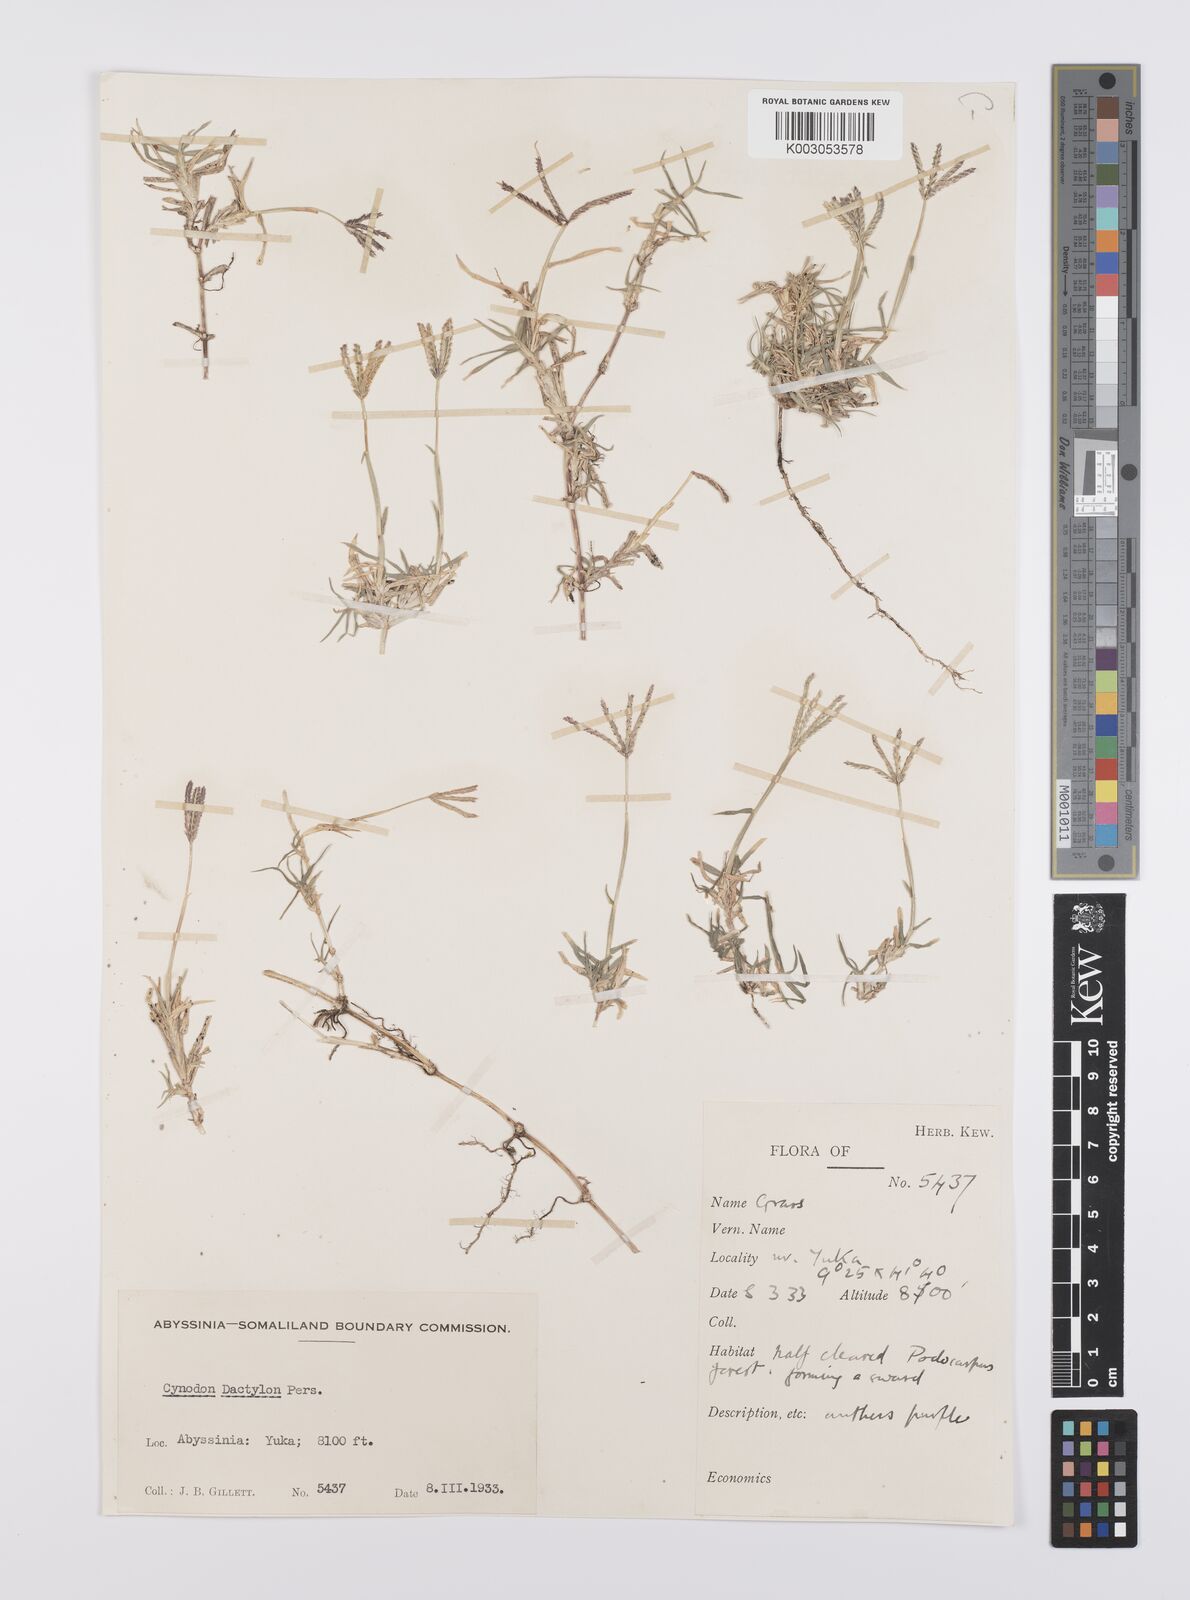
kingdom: Plantae
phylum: Tracheophyta
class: Liliopsida
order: Poales
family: Poaceae
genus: Cynodon
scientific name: Cynodon dactylon
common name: Bermuda grass
